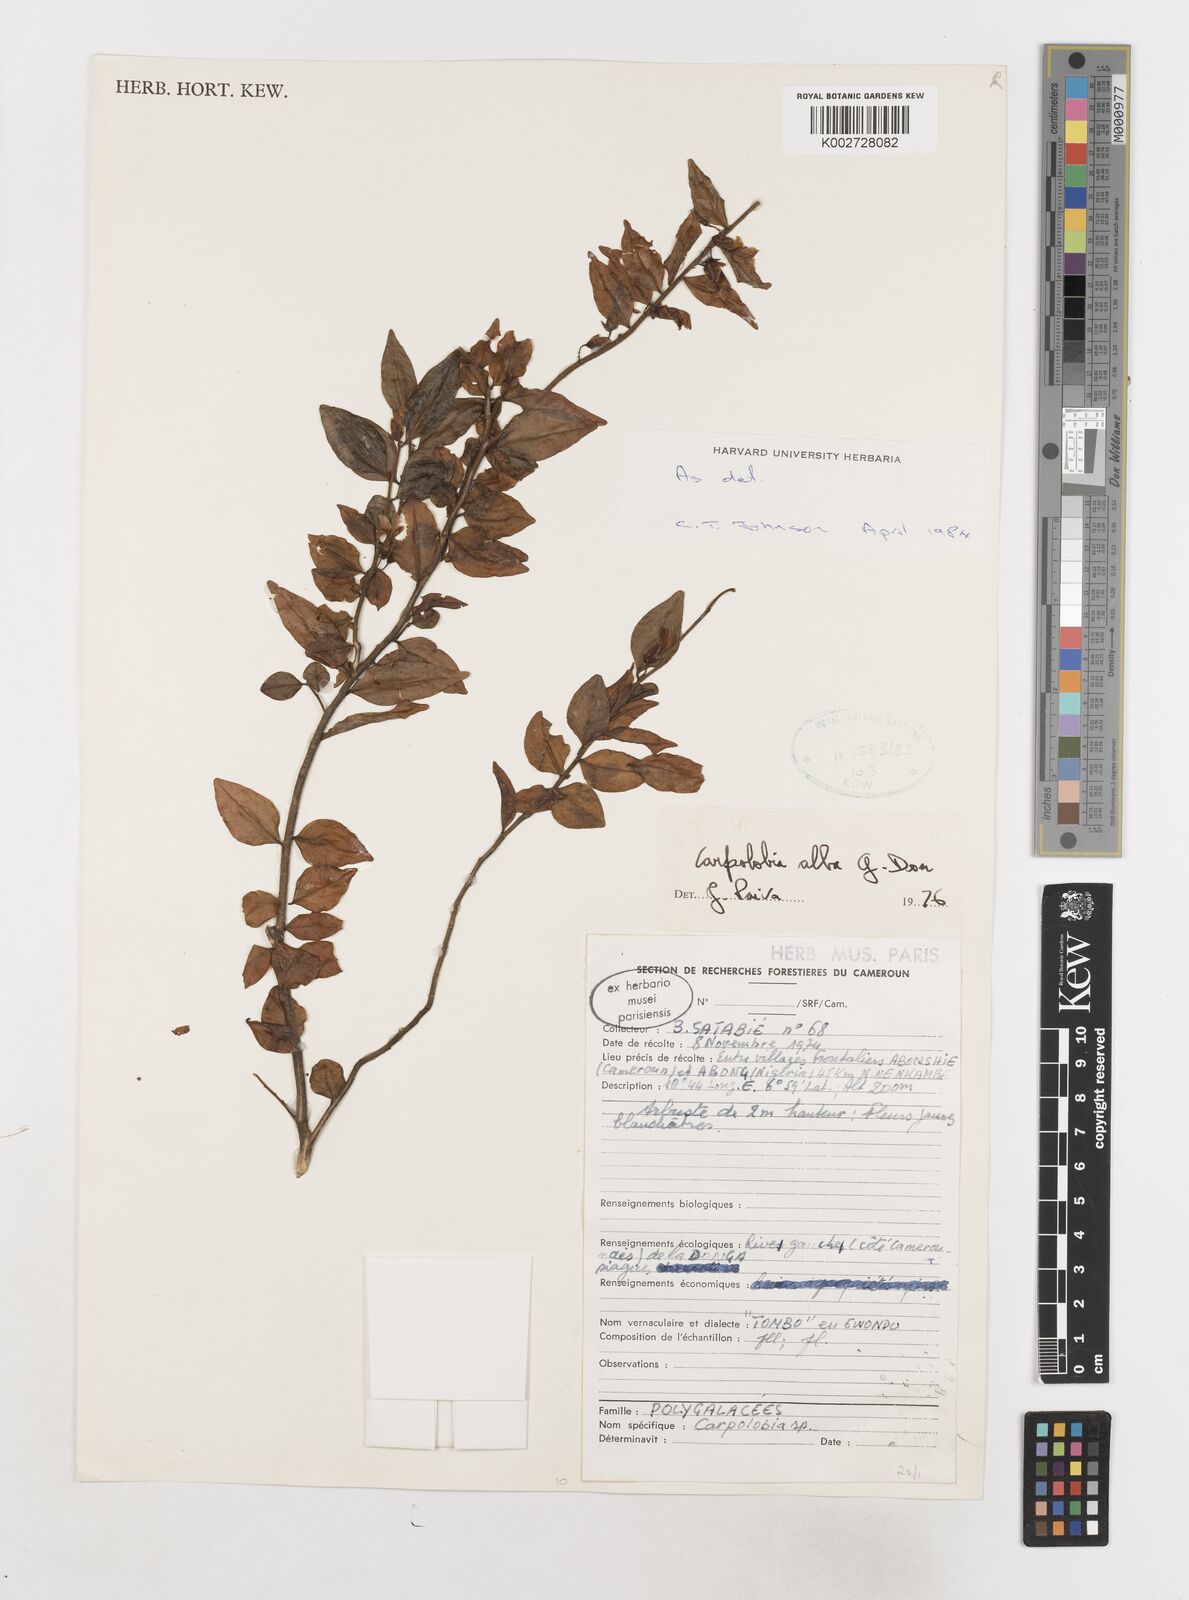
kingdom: Plantae
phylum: Tracheophyta
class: Magnoliopsida
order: Fabales
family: Polygalaceae
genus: Carpolobia
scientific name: Carpolobia alba
